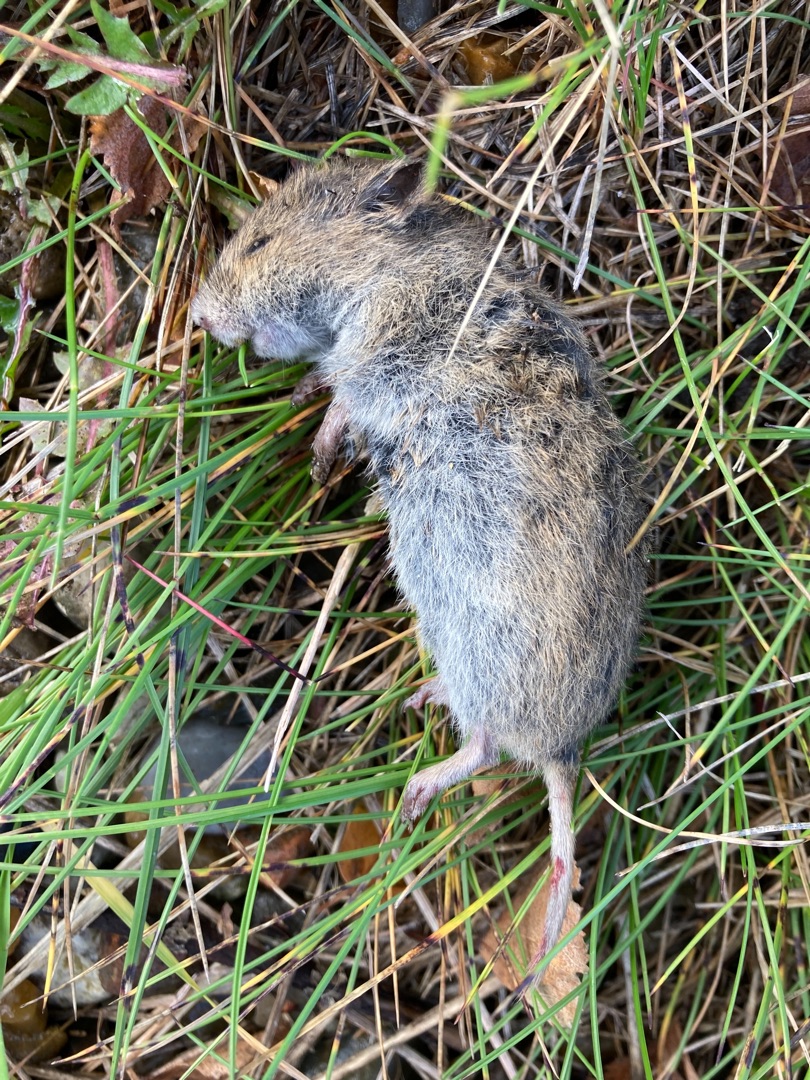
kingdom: Animalia
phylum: Chordata
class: Mammalia
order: Rodentia
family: Cricetidae
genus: Microtus
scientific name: Microtus agrestis
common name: Almindelig markmus
